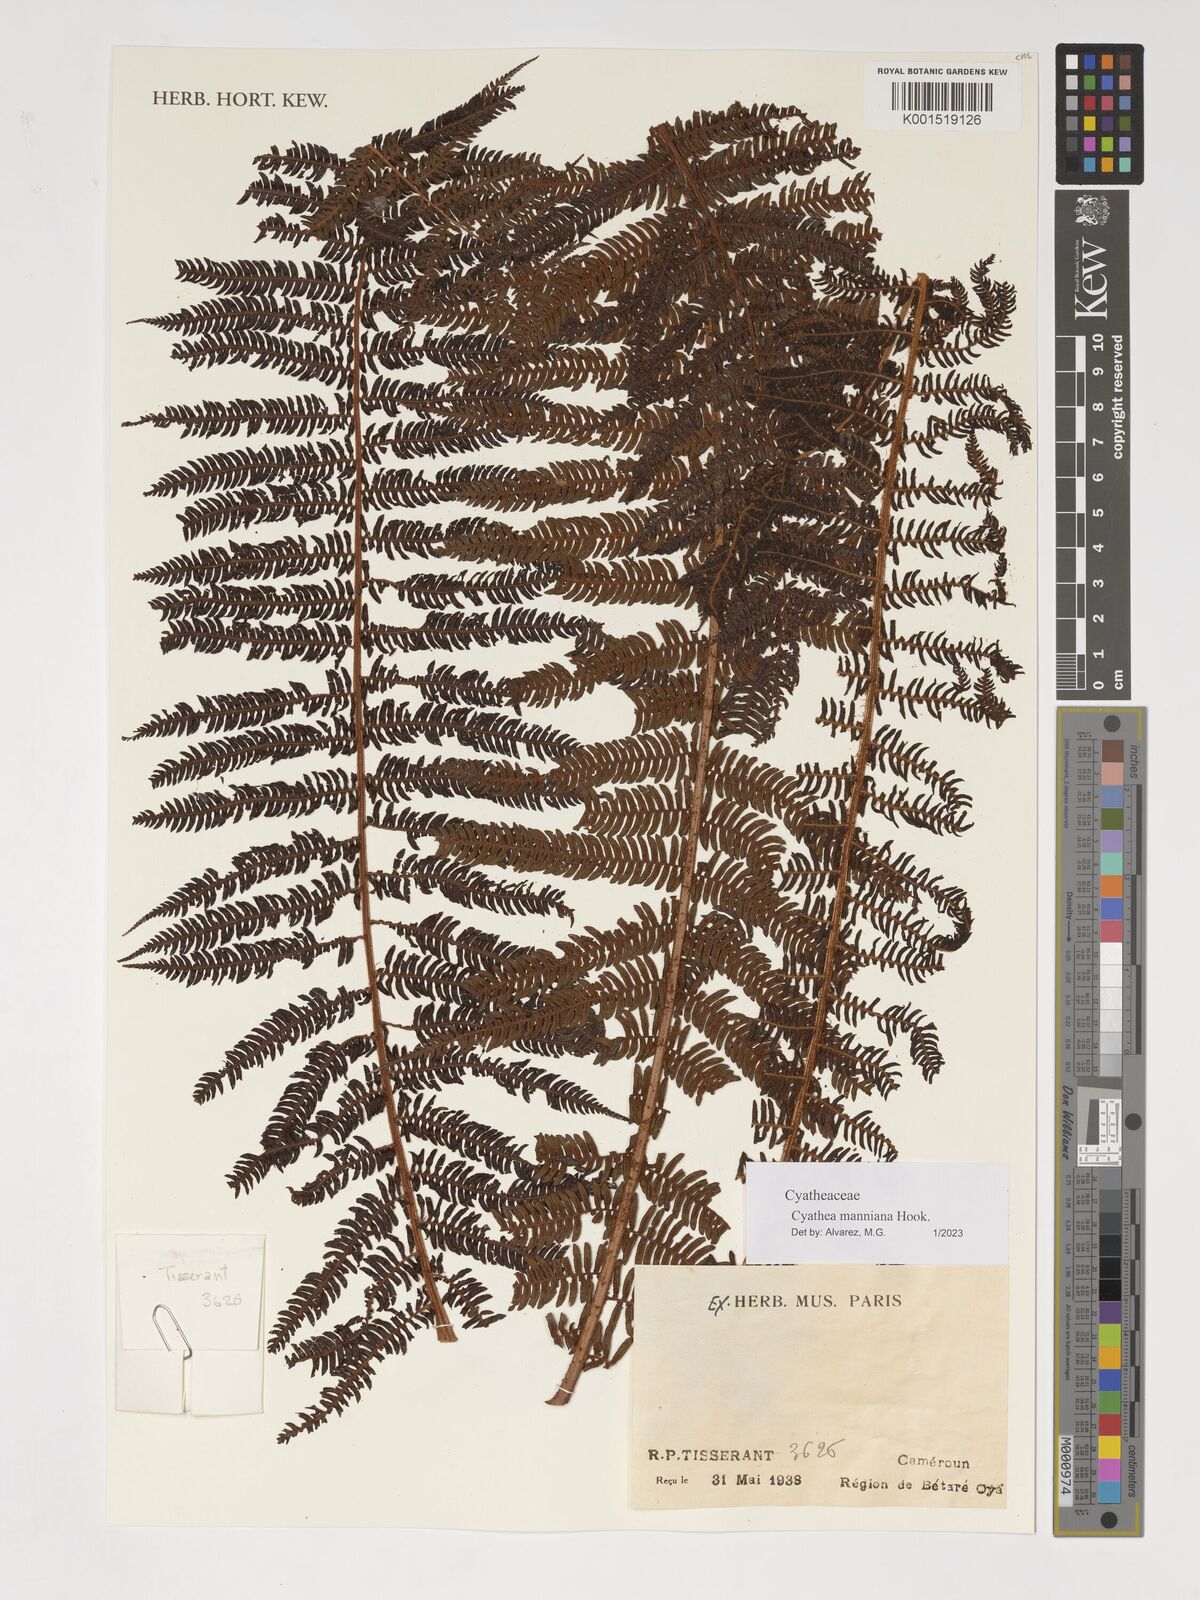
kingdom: Plantae
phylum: Tracheophyta
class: Polypodiopsida
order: Cyatheales
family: Cyatheaceae
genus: Alsophila
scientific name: Alsophila manniana
